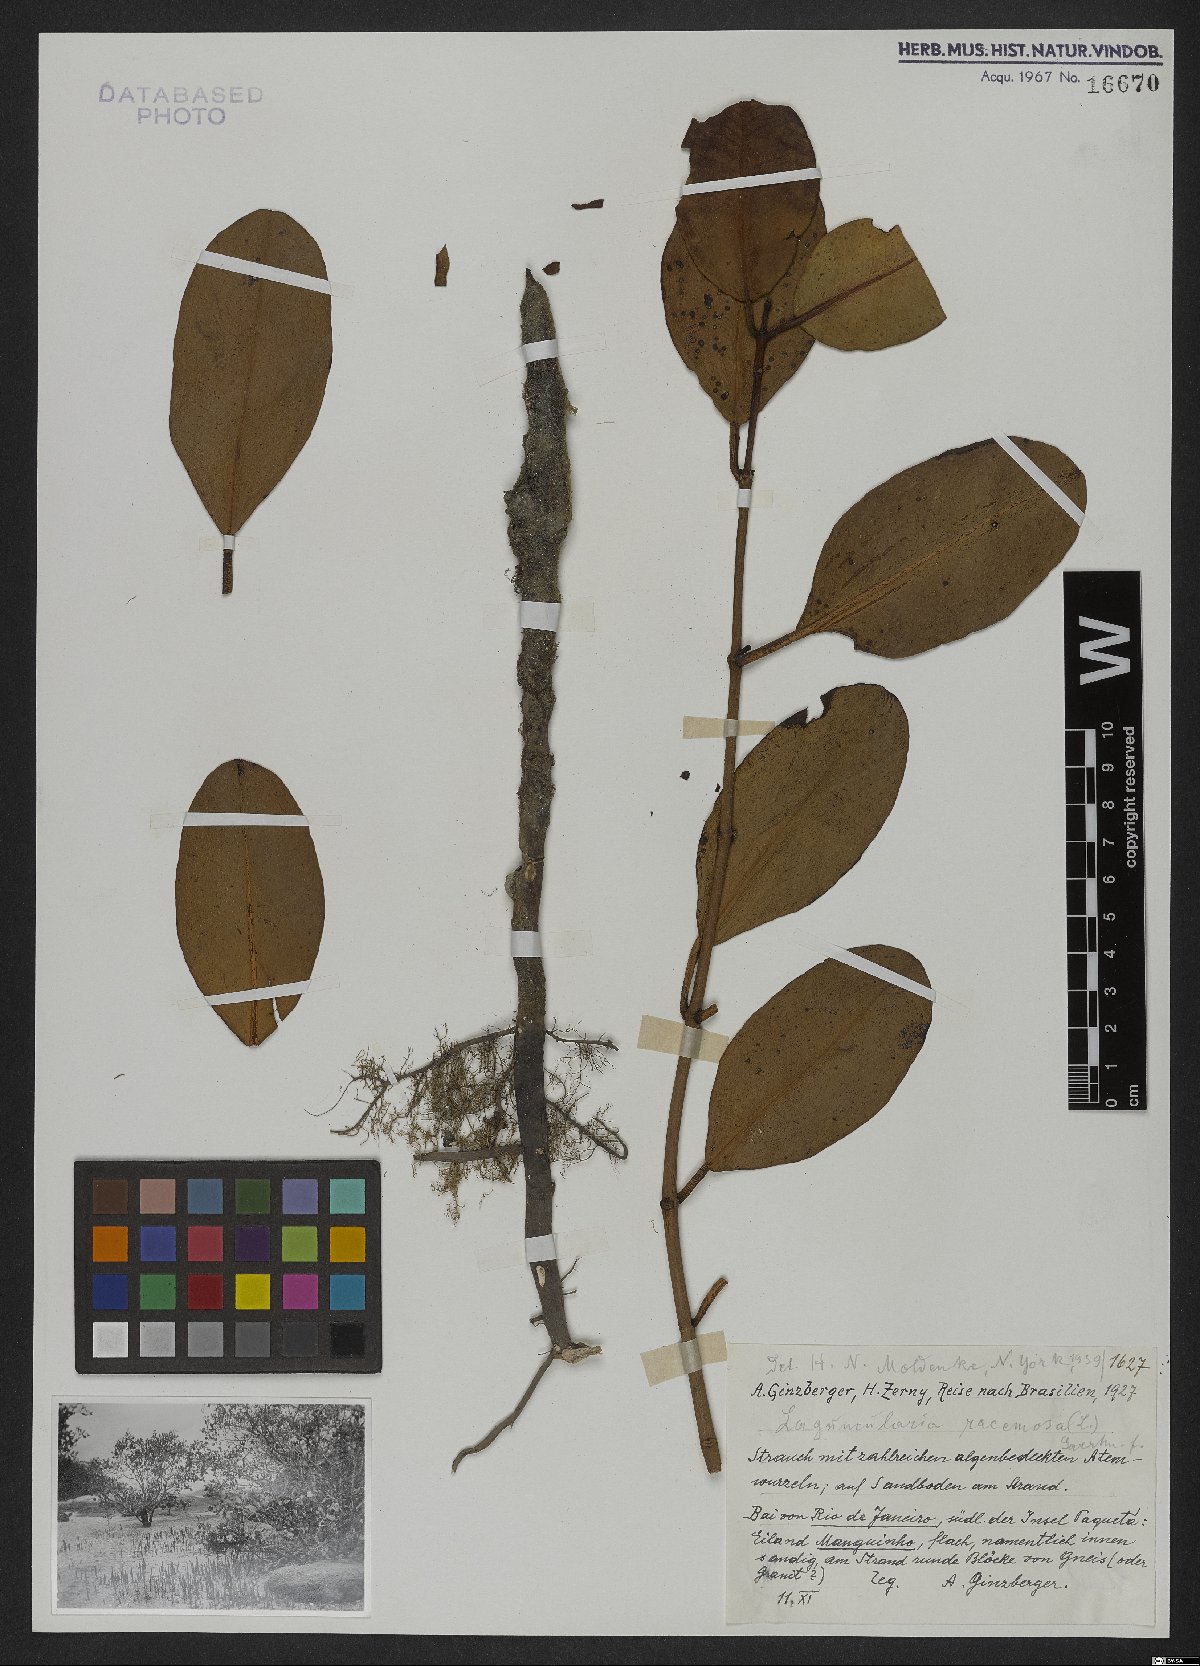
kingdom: Plantae
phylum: Tracheophyta
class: Magnoliopsida
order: Myrtales
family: Combretaceae
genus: Laguncularia
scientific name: Laguncularia racemosa
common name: White mangrove
